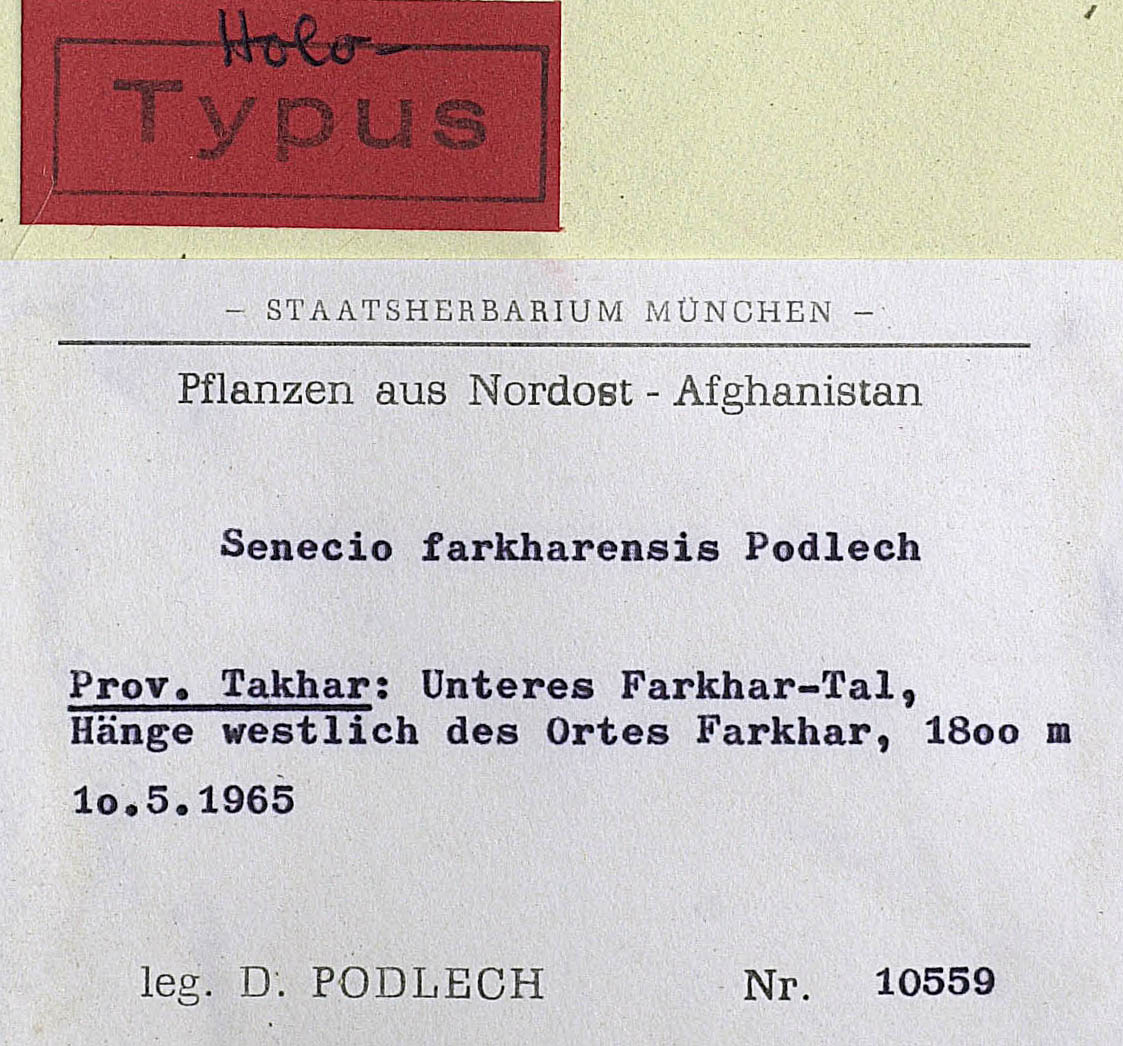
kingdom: Plantae
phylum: Tracheophyta
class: Magnoliopsida
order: Asterales
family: Asteraceae
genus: Senecio
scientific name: Senecio franchetii
